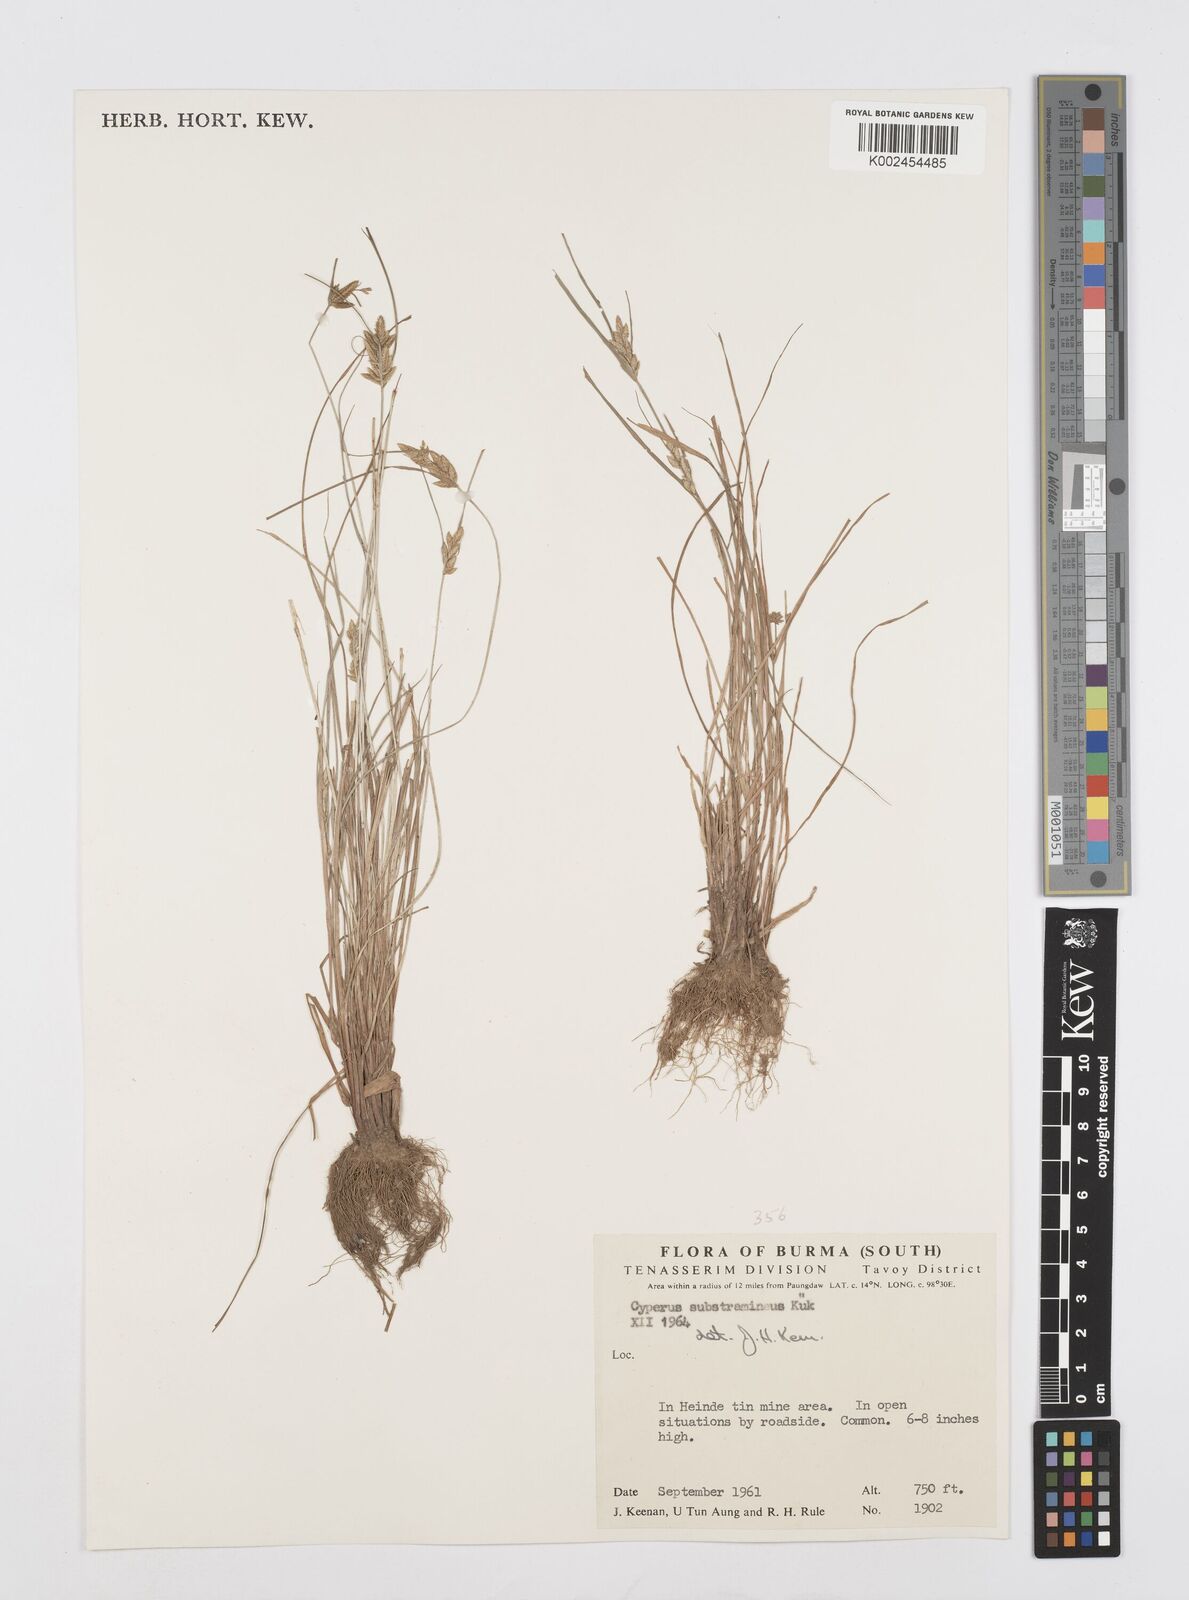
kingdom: Plantae
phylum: Tracheophyta
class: Liliopsida
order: Poales
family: Cyperaceae
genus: Cyperus
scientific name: Cyperus substramineus
